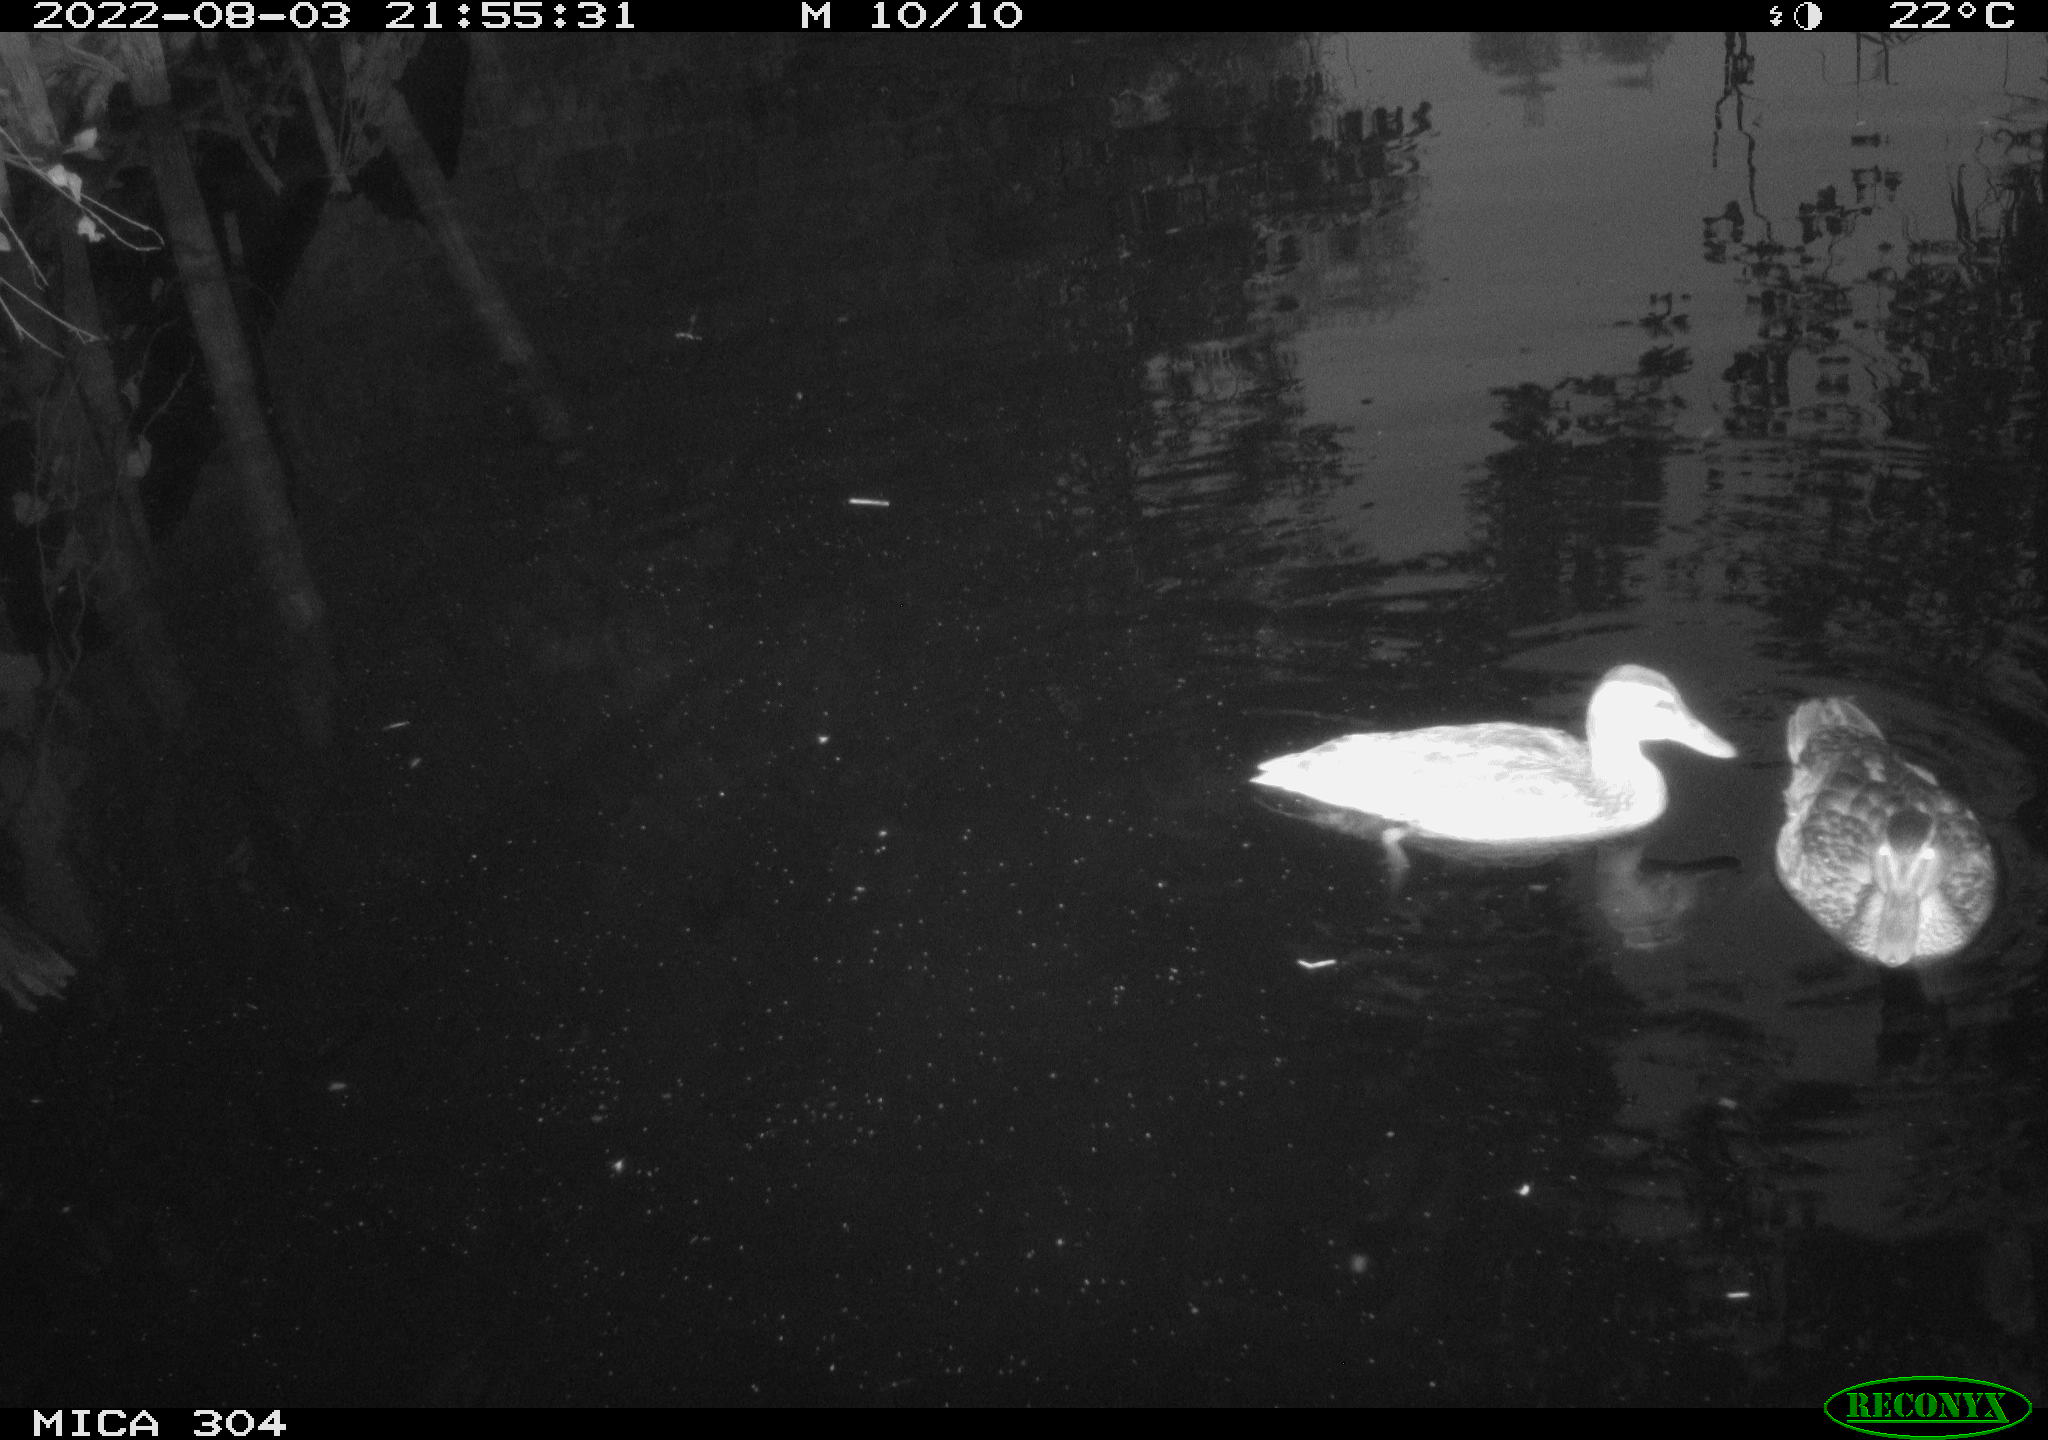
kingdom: Animalia
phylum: Chordata
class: Aves
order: Anseriformes
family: Anatidae
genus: Mareca
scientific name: Mareca strepera
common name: Gadwall
